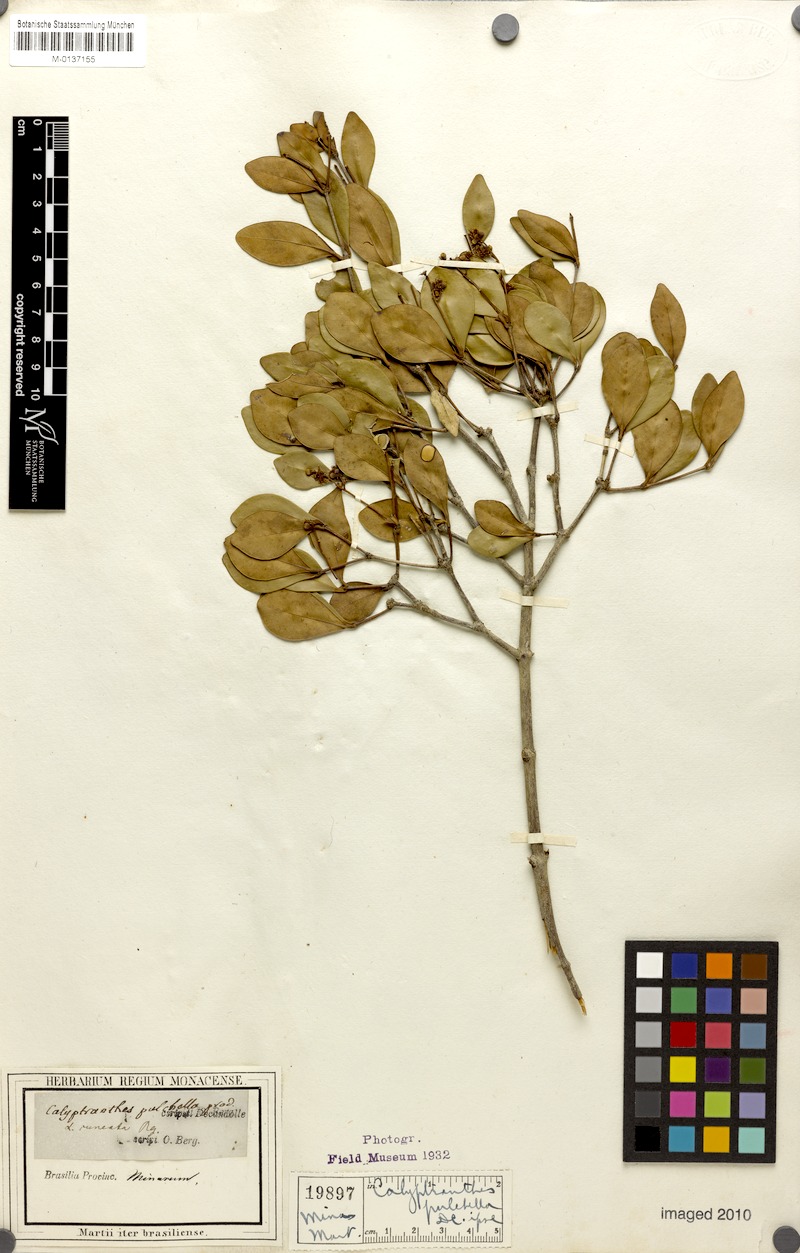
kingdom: Plantae
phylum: Tracheophyta
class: Magnoliopsida
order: Myrtales
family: Myrtaceae
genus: Myrcia
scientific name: Myrcia pulchella
